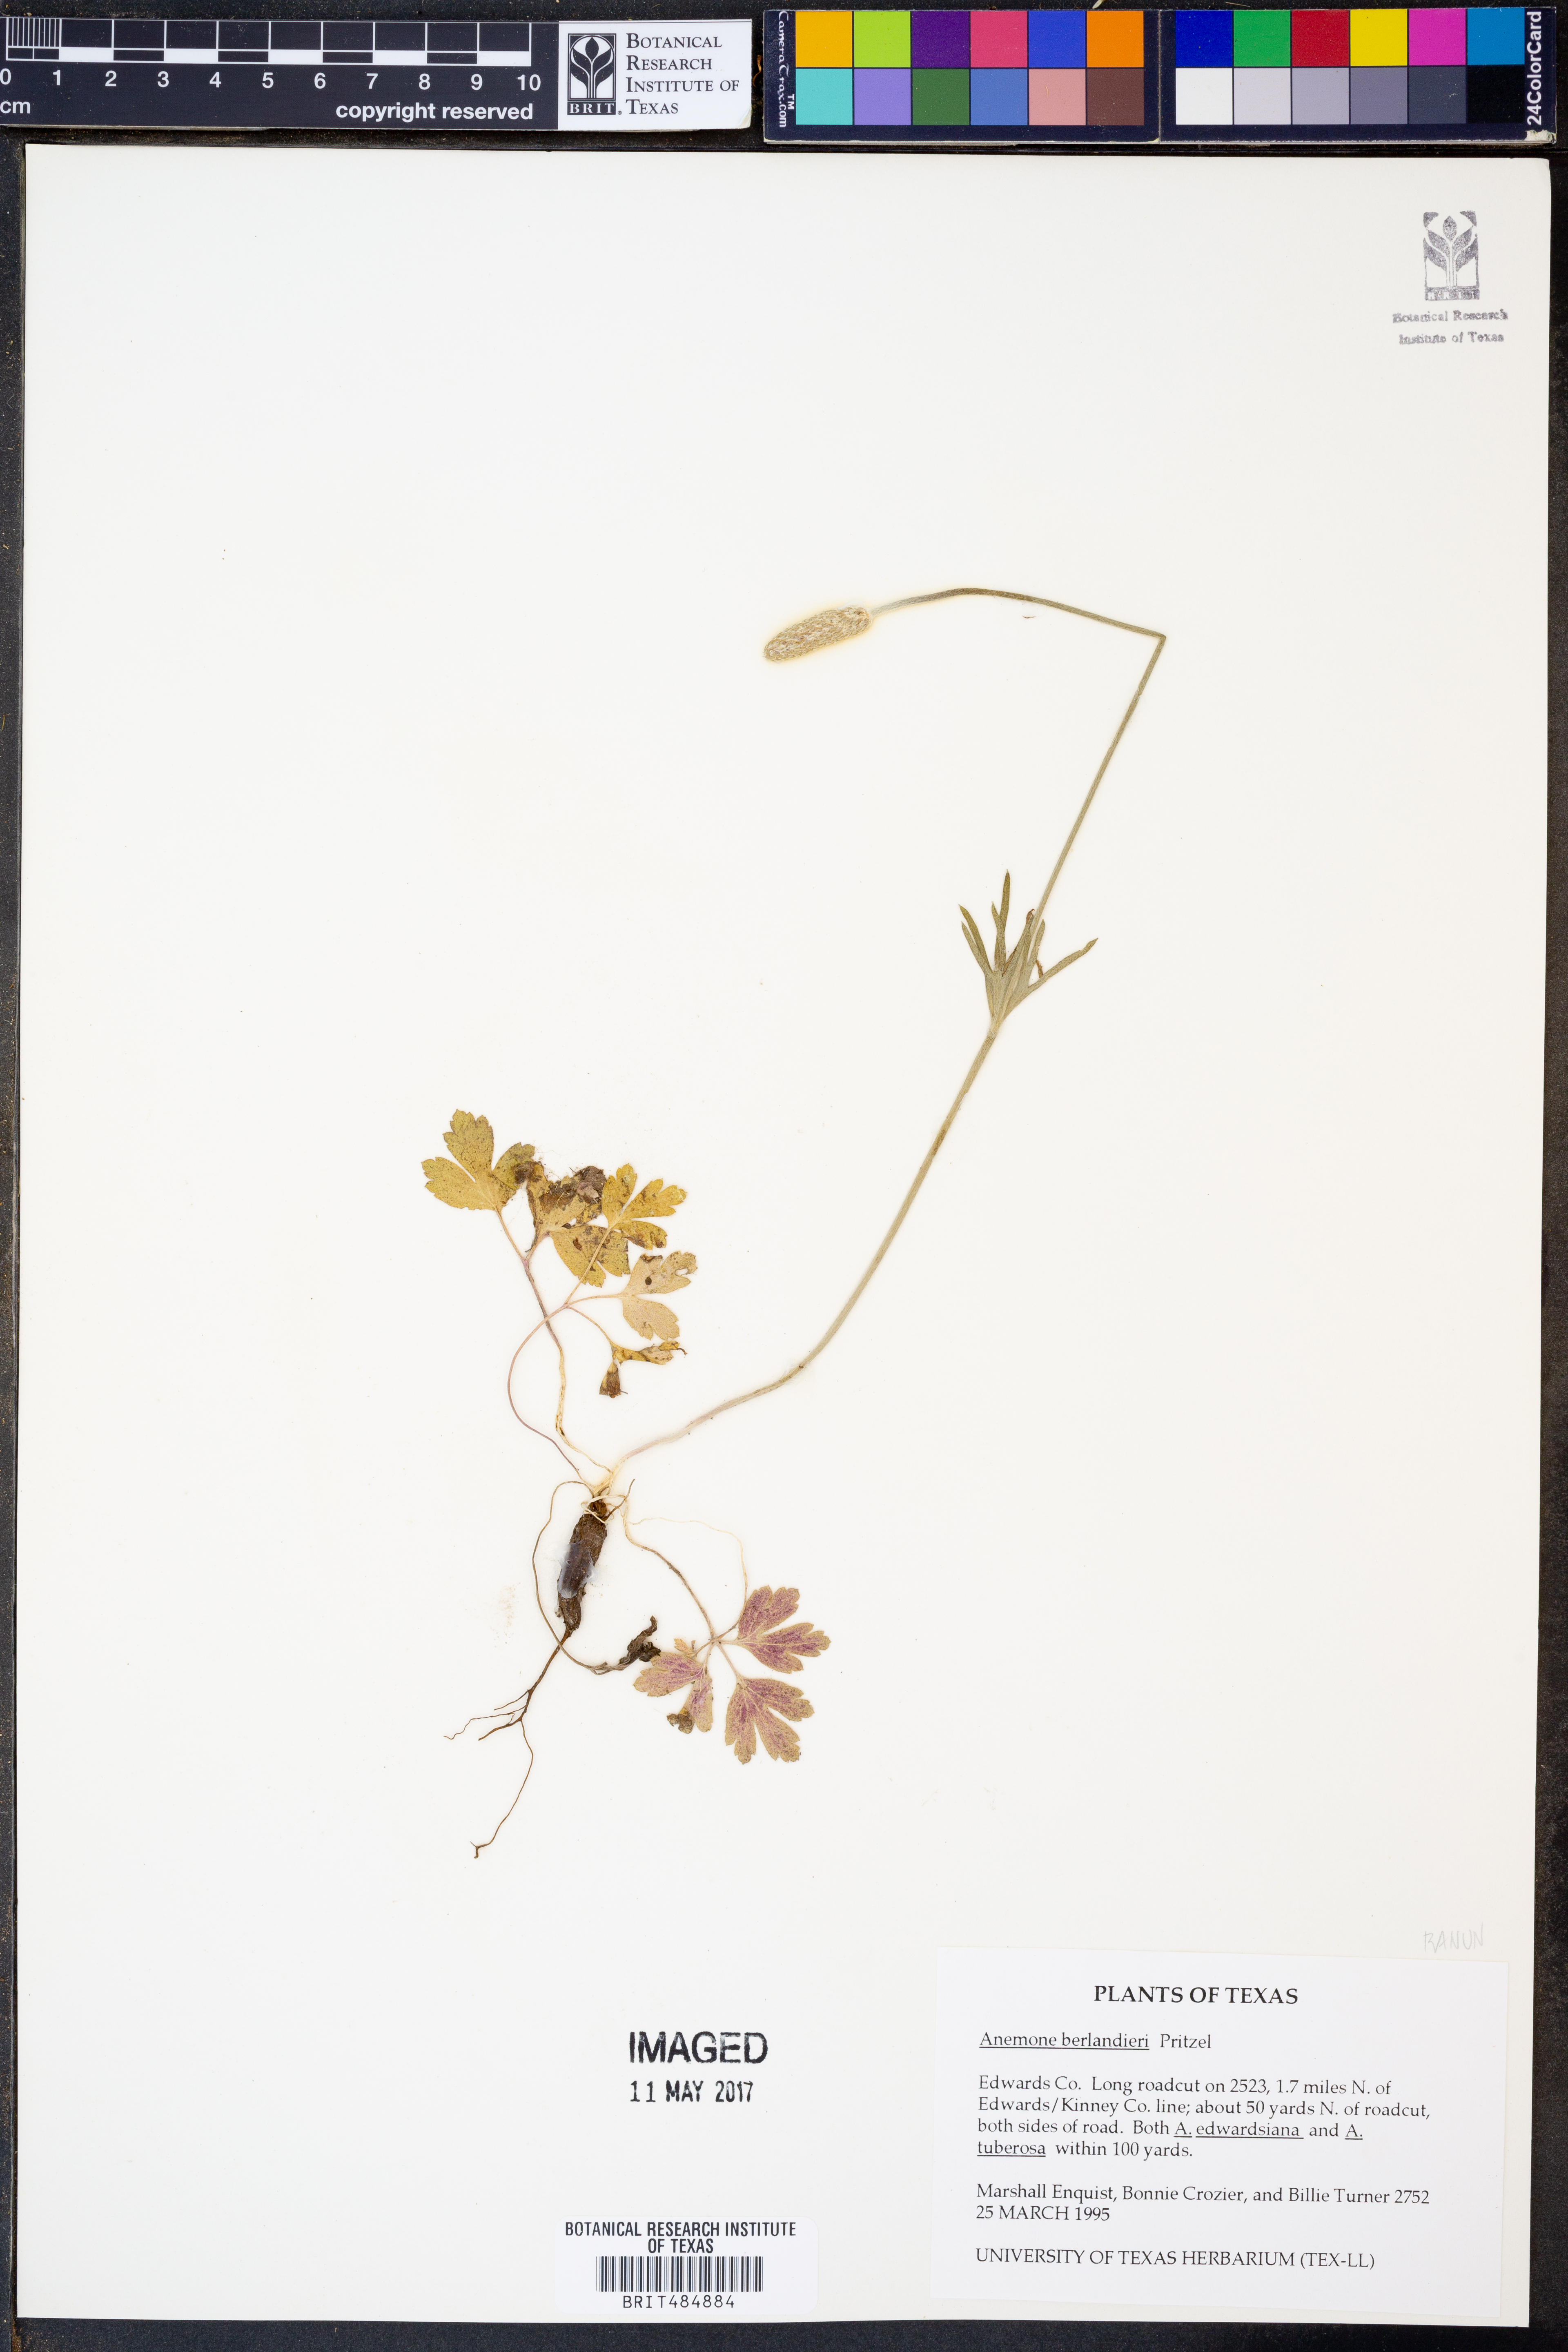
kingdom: Plantae
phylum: Tracheophyta
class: Magnoliopsida
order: Ranunculales
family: Ranunculaceae
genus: Anemone
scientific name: Anemone berlandieri
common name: Ten-petal anemone
